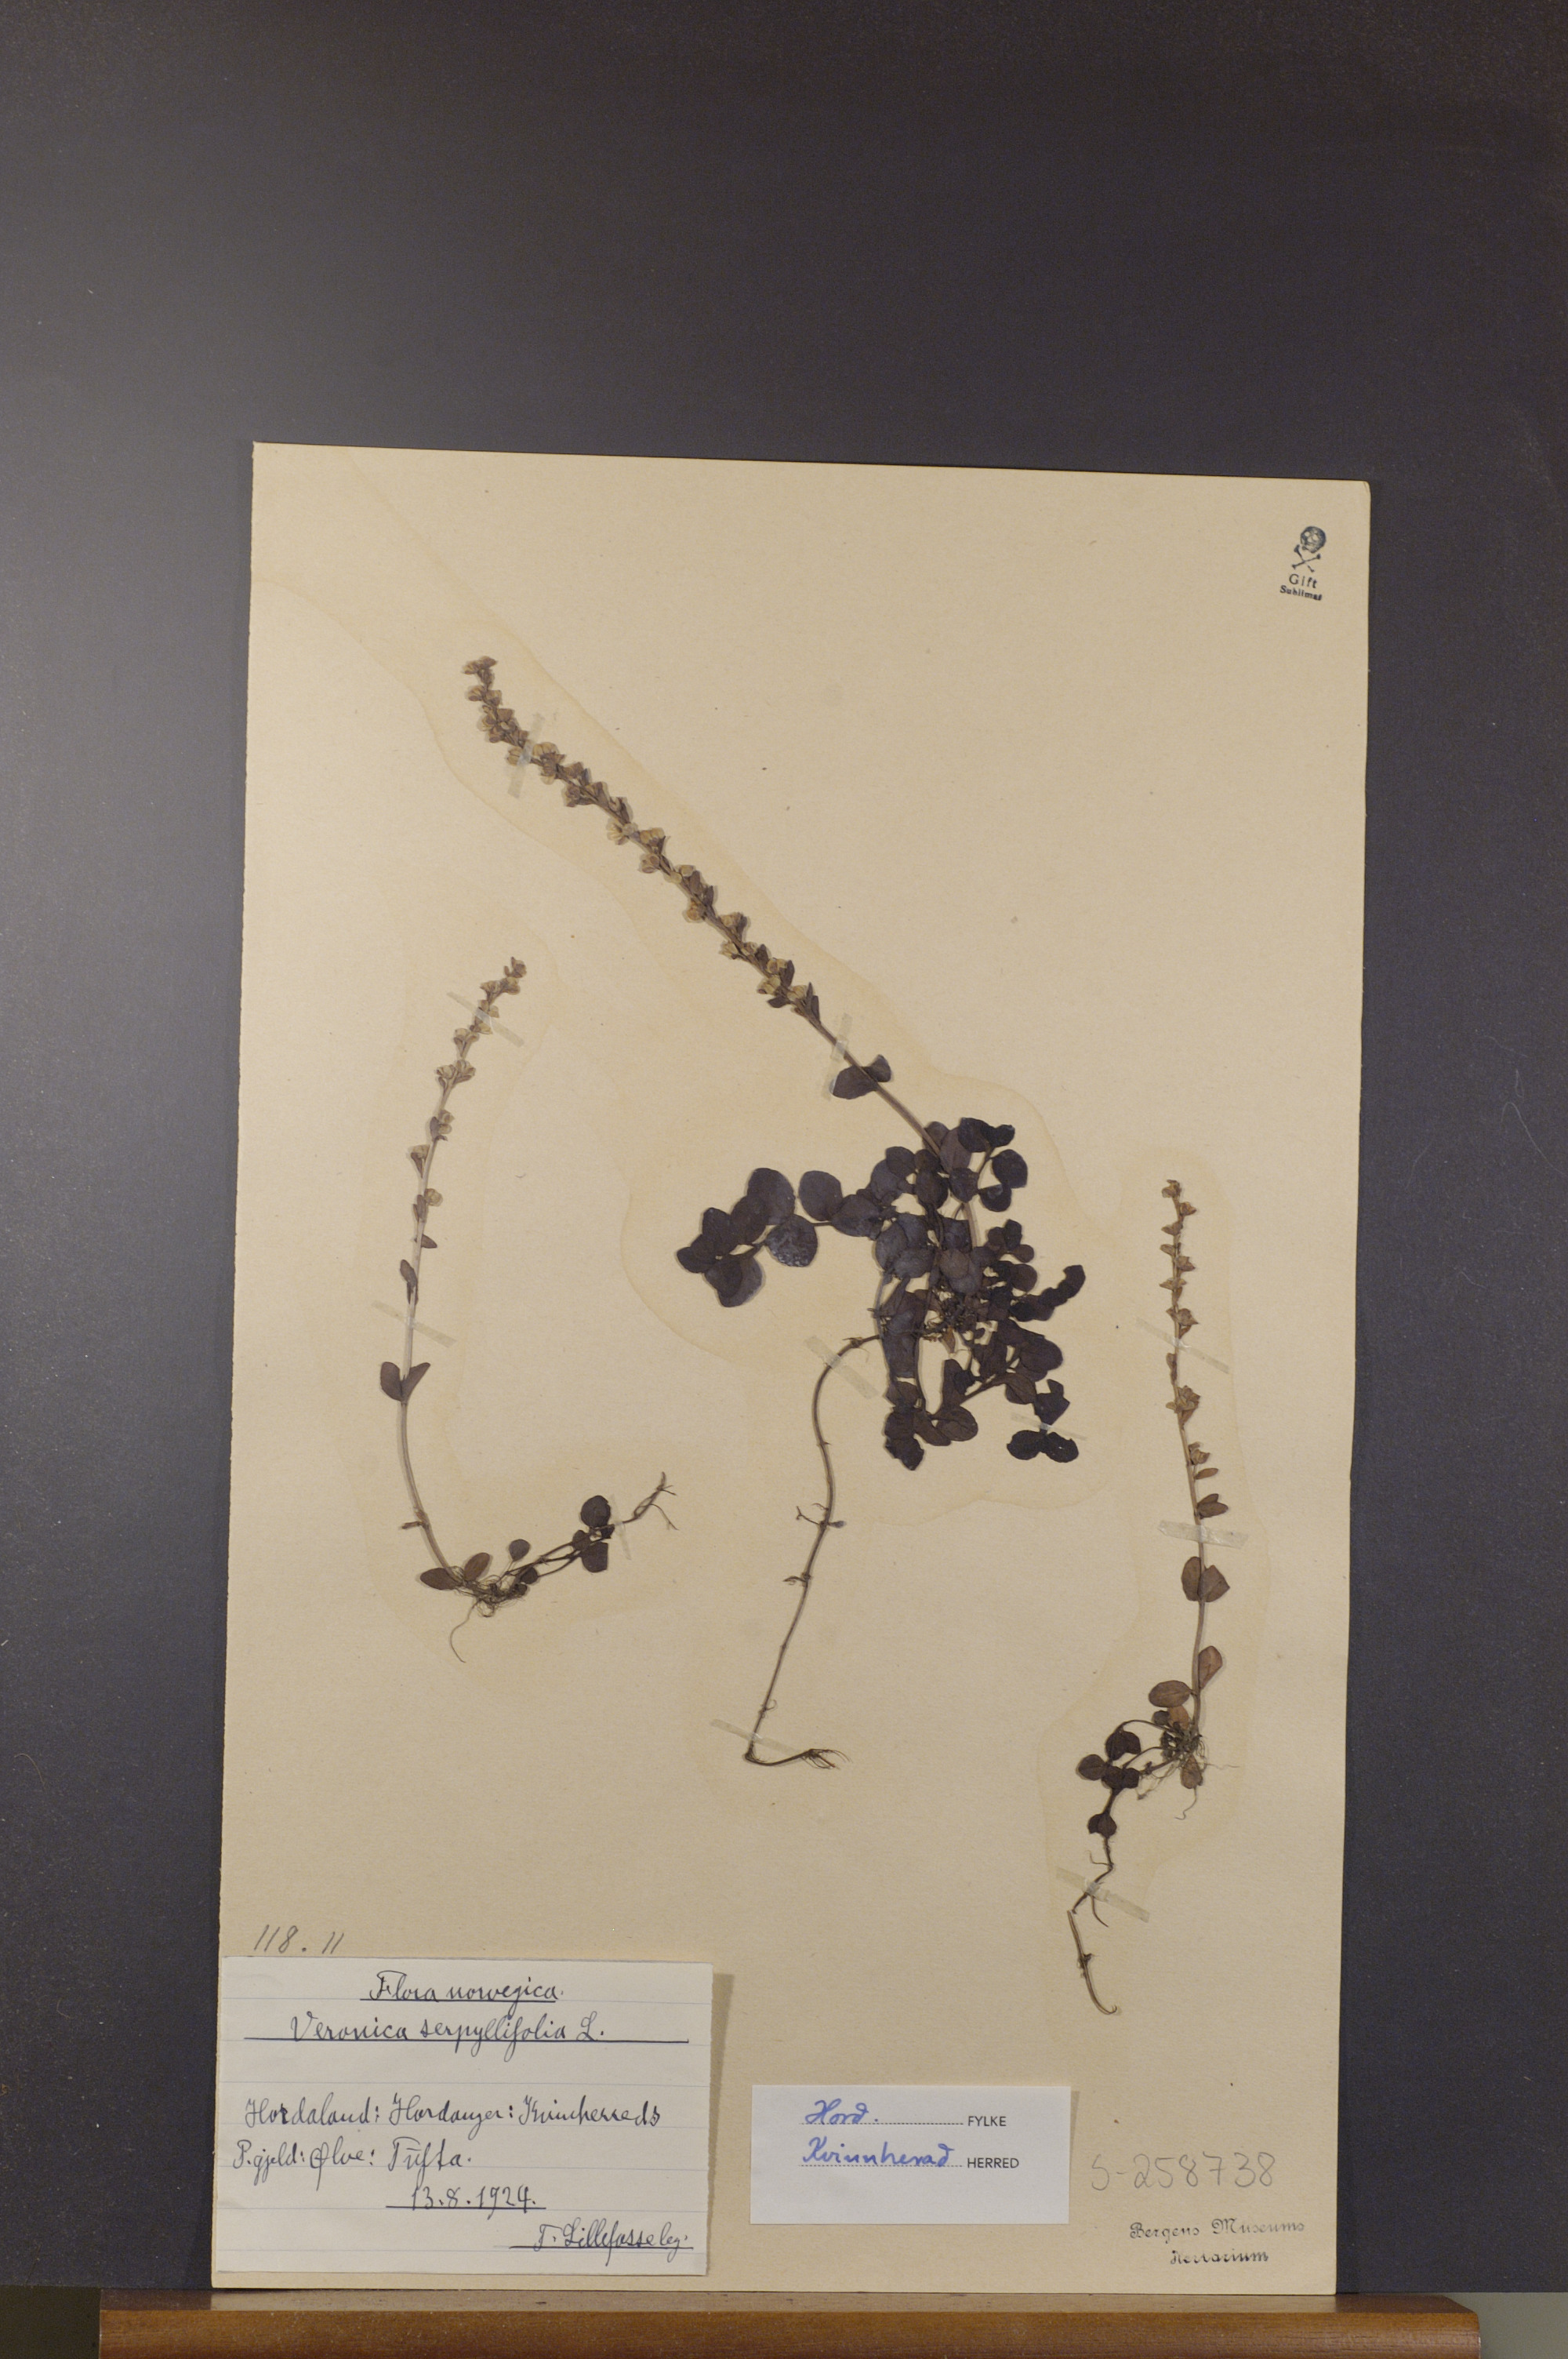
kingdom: Plantae
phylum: Tracheophyta
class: Magnoliopsida
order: Lamiales
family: Plantaginaceae
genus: Veronica
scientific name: Veronica serpyllifolia
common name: Thyme-leaved speedwell
